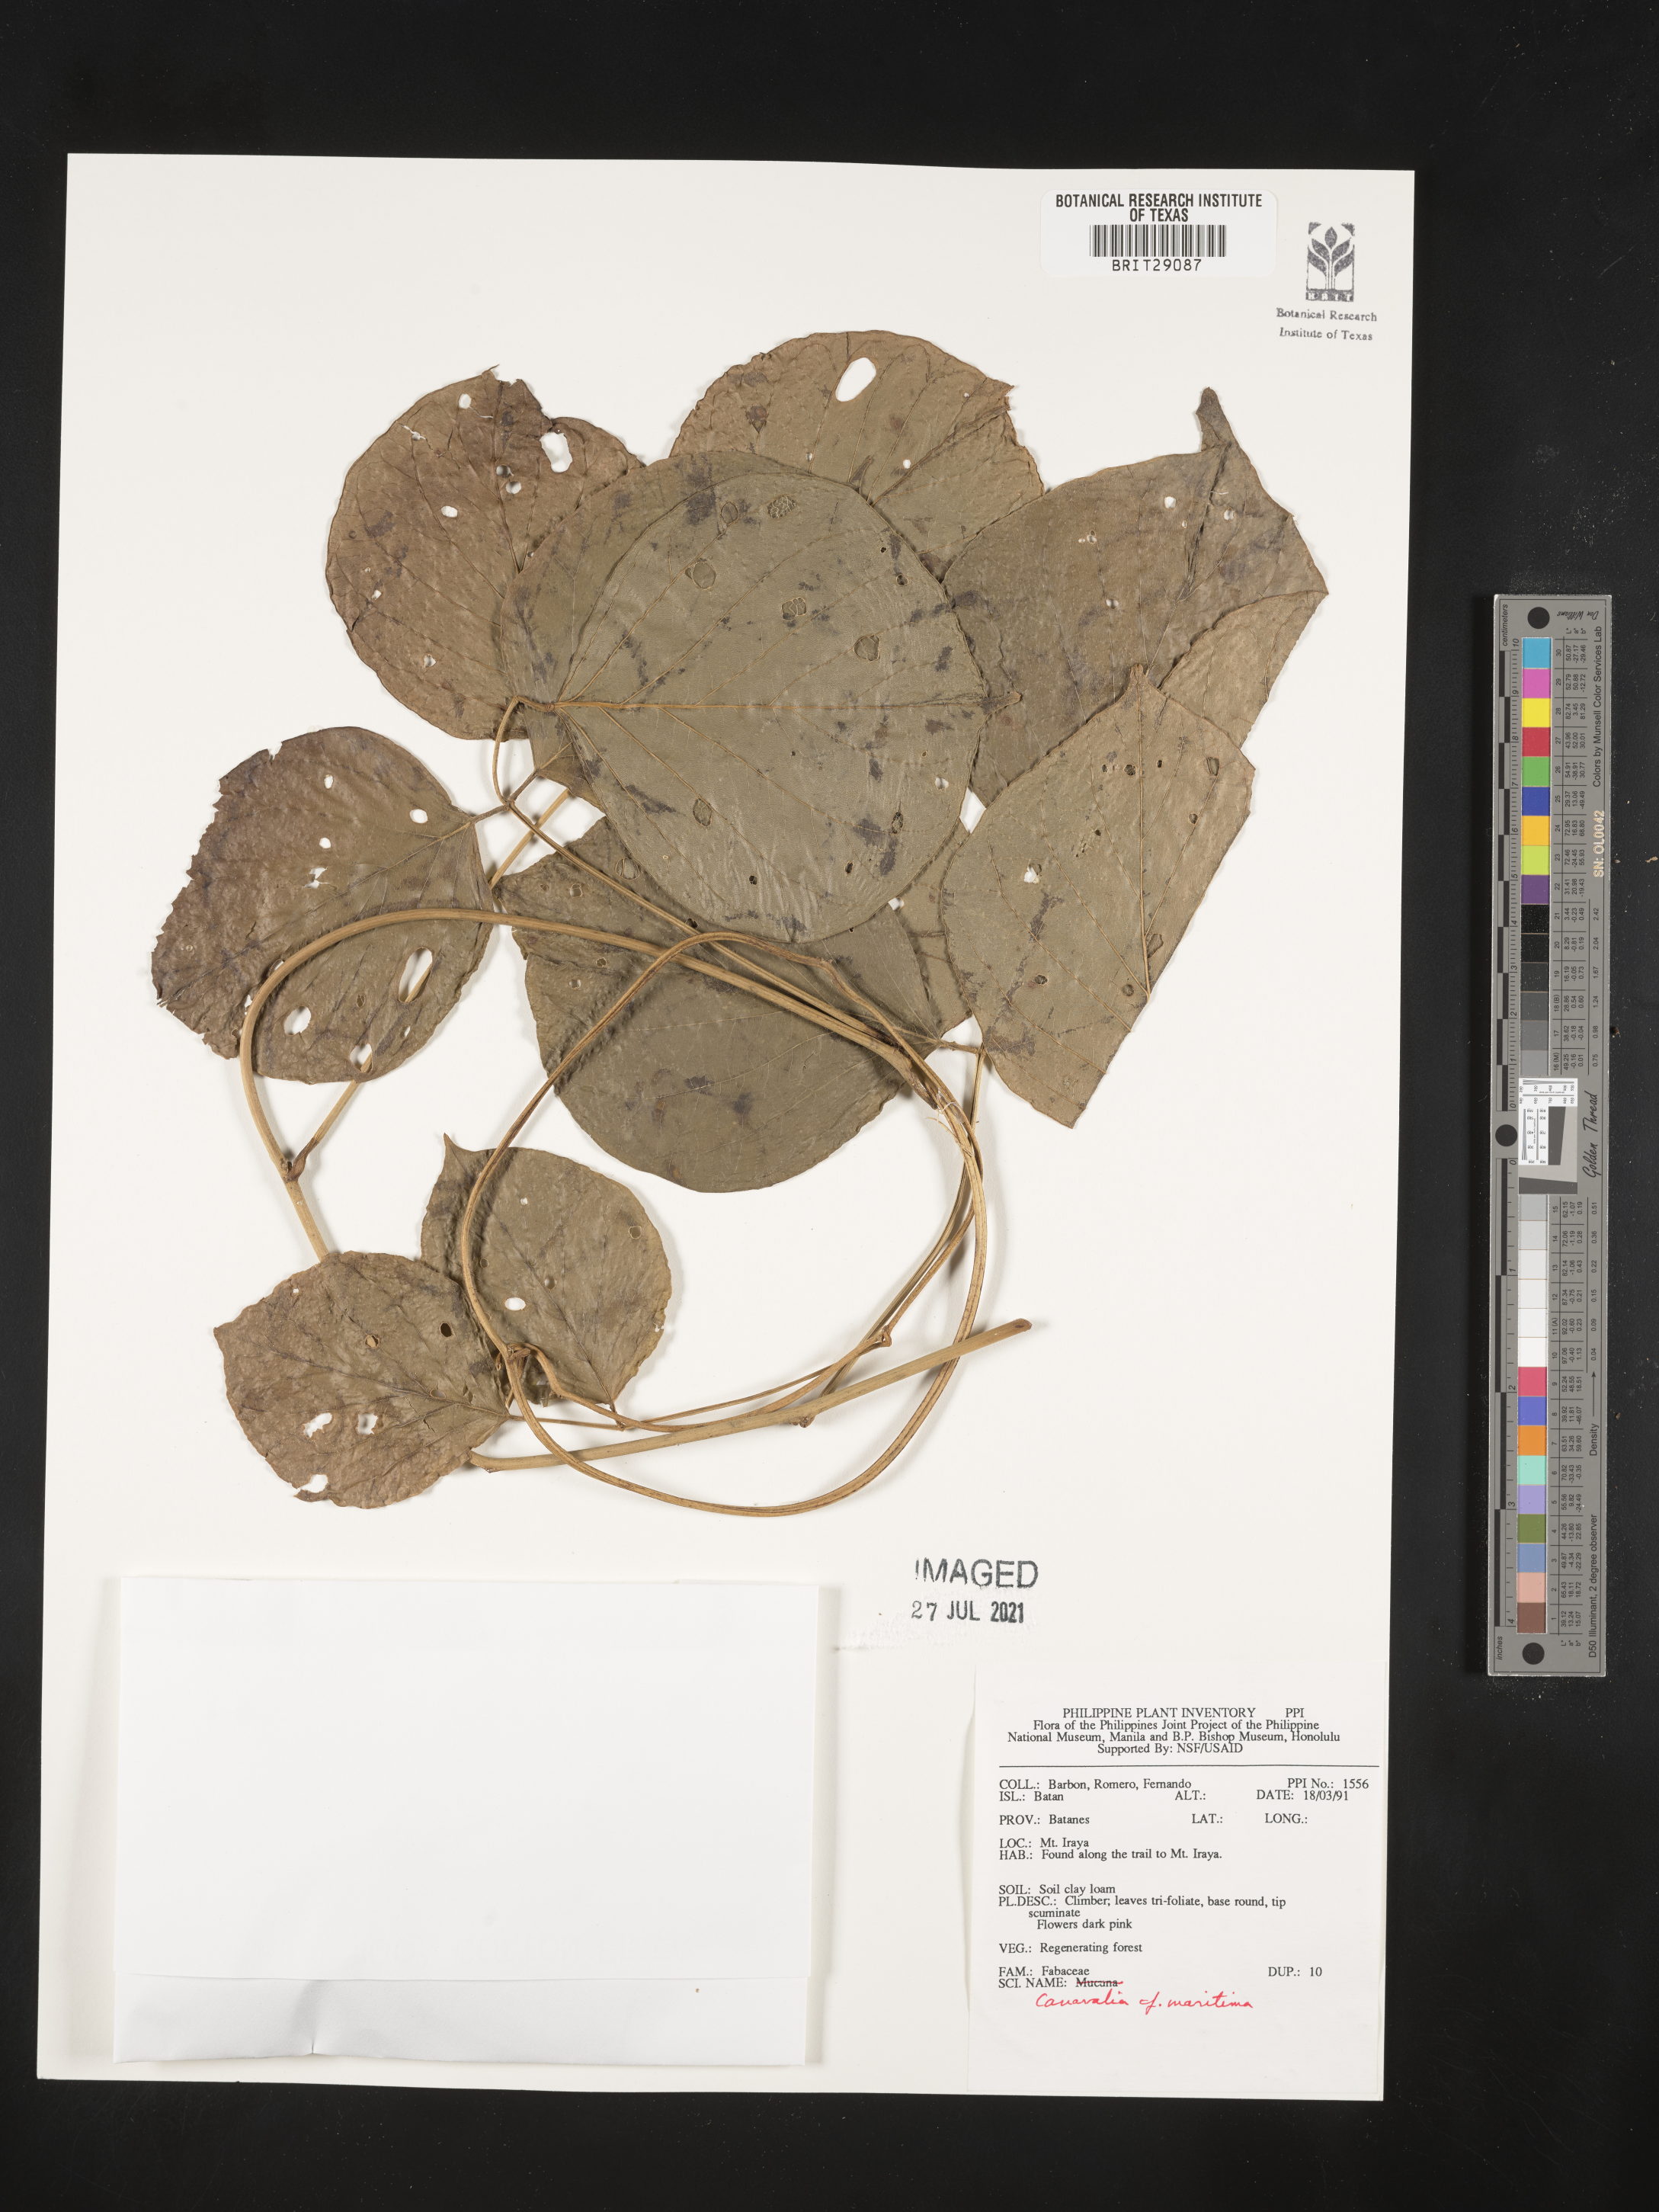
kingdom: Plantae
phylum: Tracheophyta
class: Magnoliopsida
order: Fabales
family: Fabaceae
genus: Canavalia
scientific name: Canavalia rosea
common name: Beach-bean
